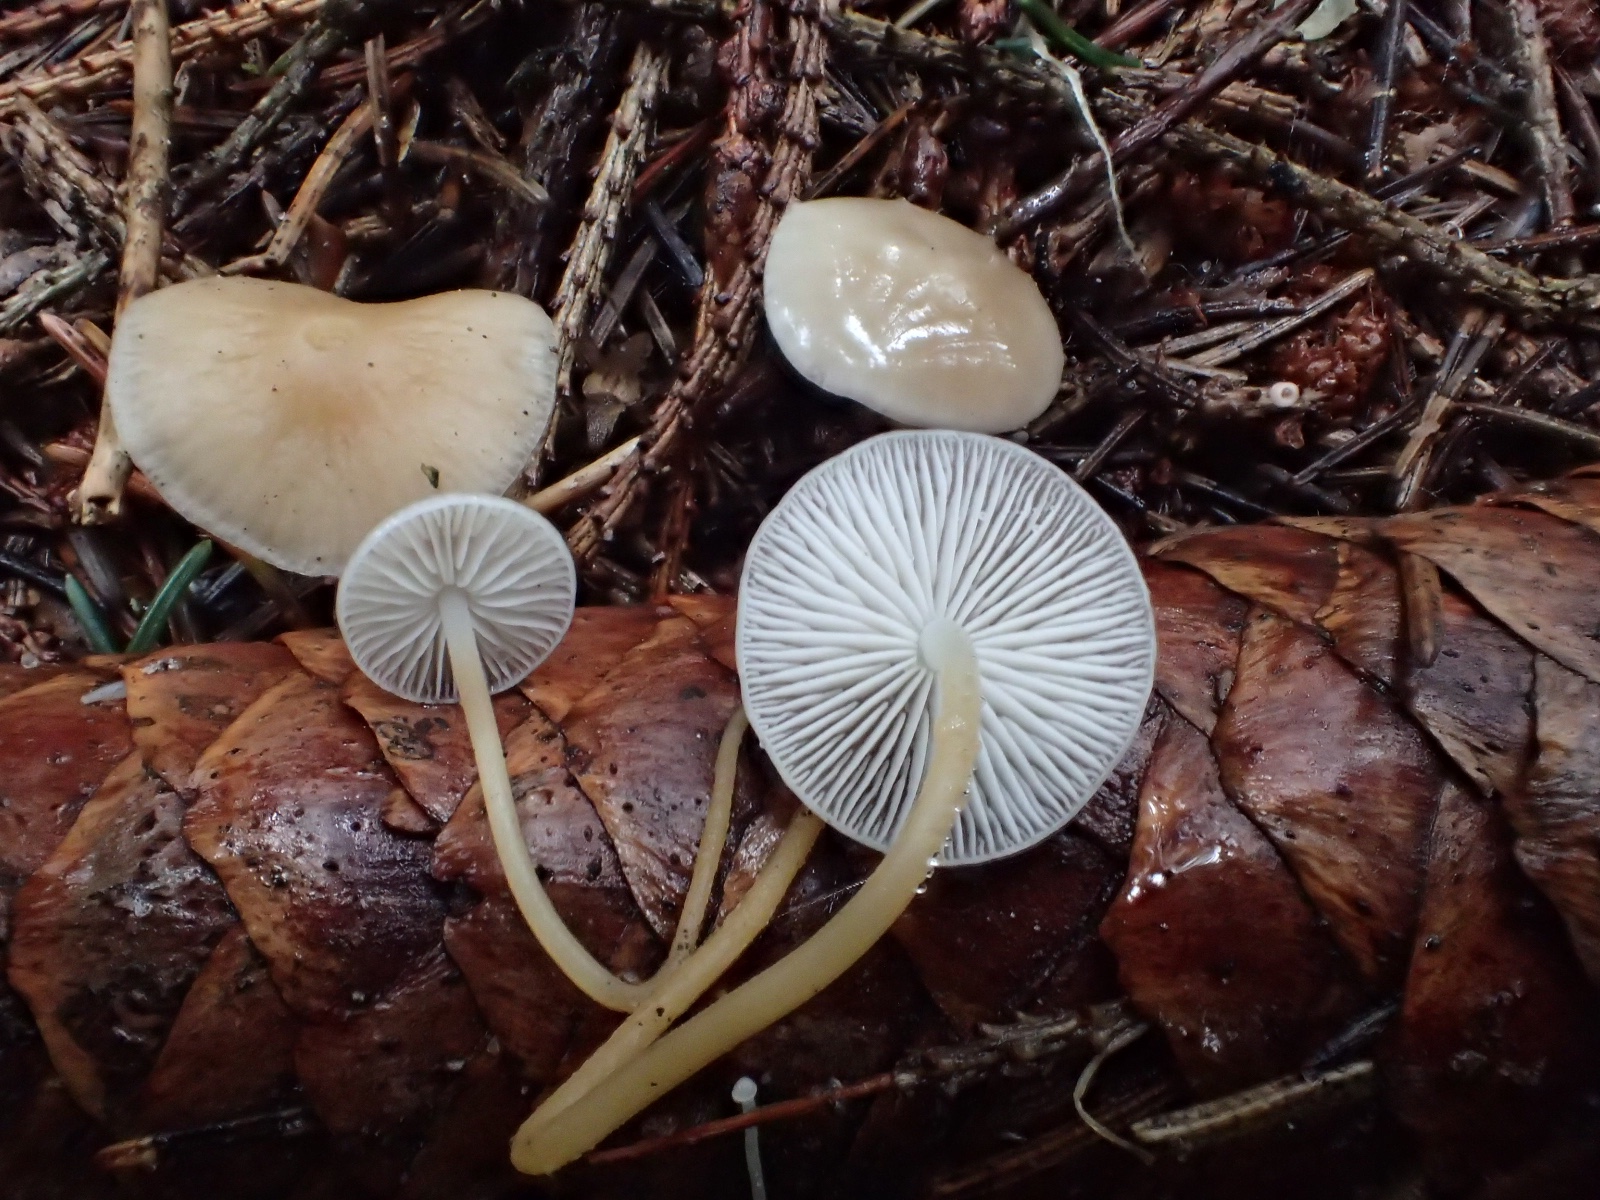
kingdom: Fungi
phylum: Basidiomycota
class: Agaricomycetes
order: Agaricales
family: Physalacriaceae
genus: Strobilurus
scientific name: Strobilurus esculentus
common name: gran-koglehat
